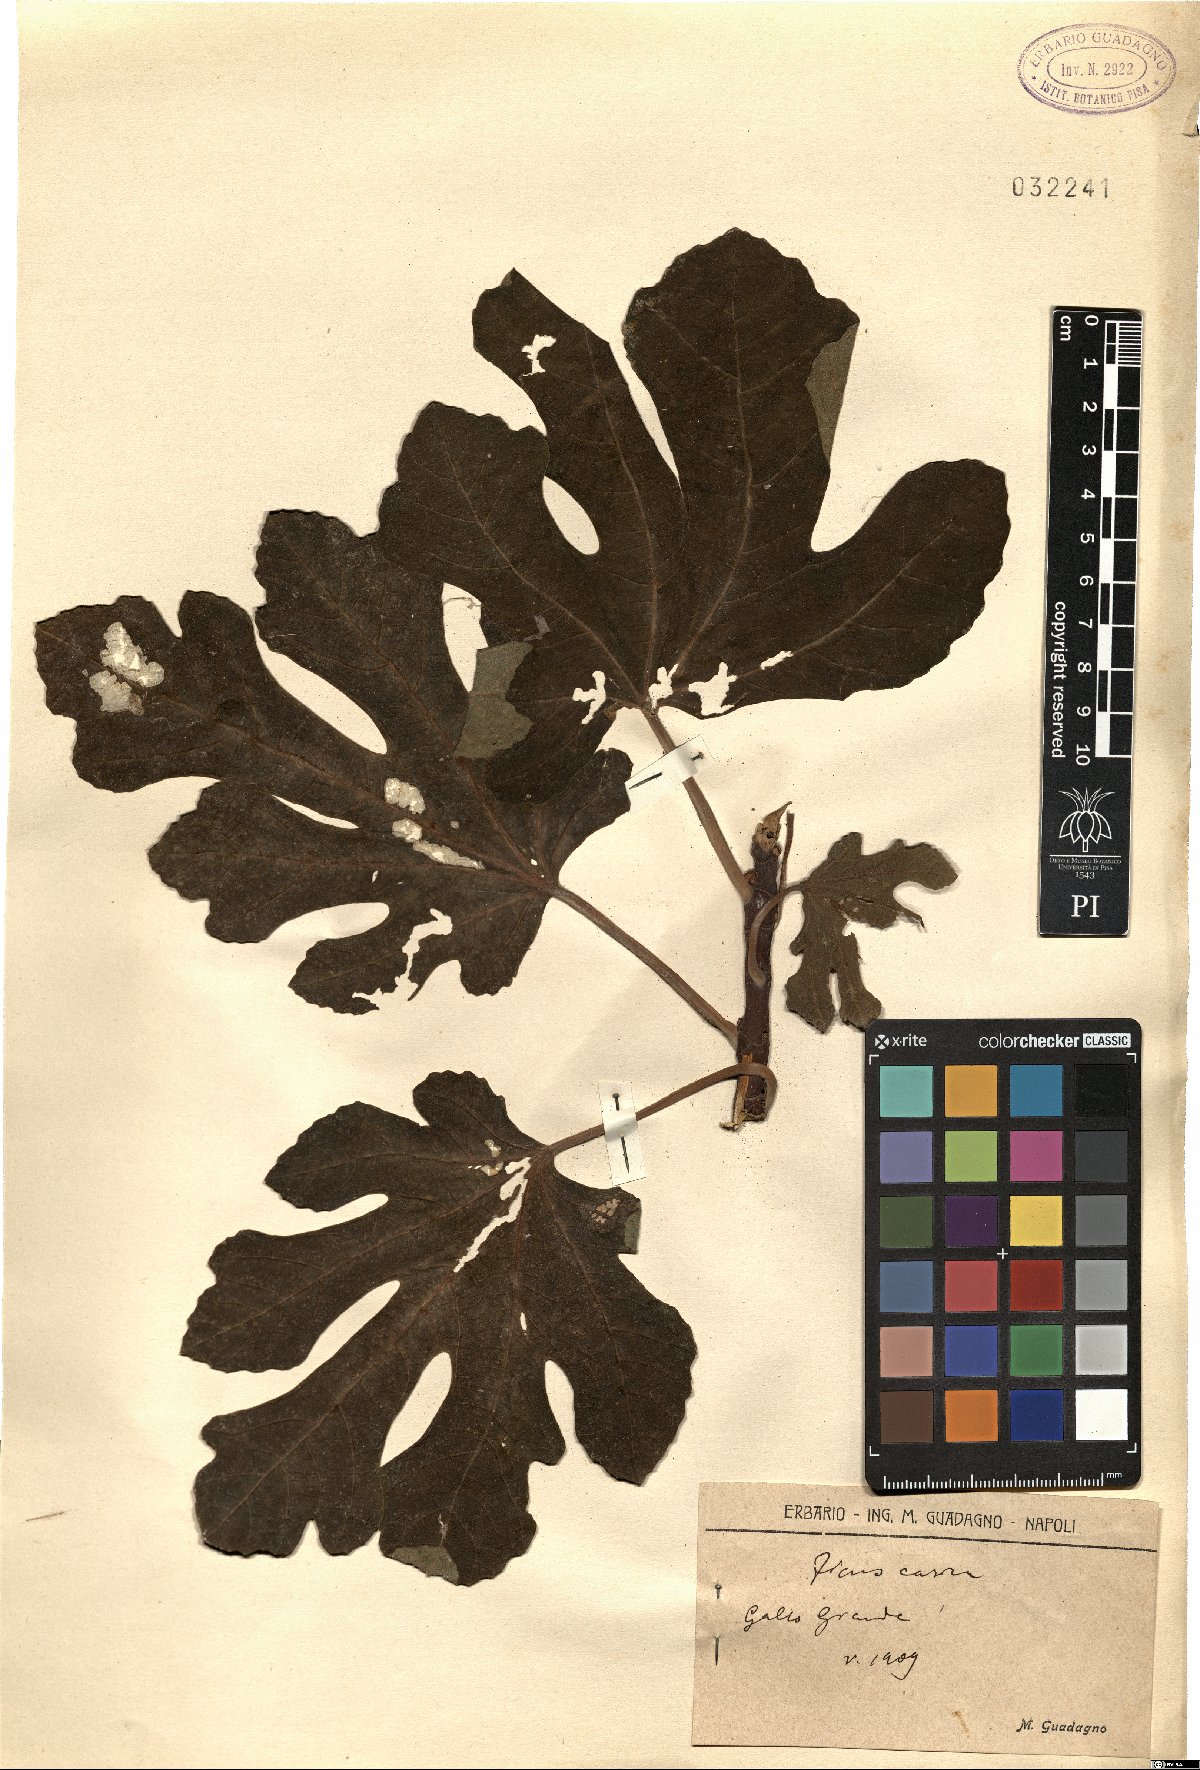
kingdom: Plantae
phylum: Tracheophyta
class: Magnoliopsida
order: Rosales
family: Moraceae
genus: Ficus
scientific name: Ficus carica
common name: Fig
